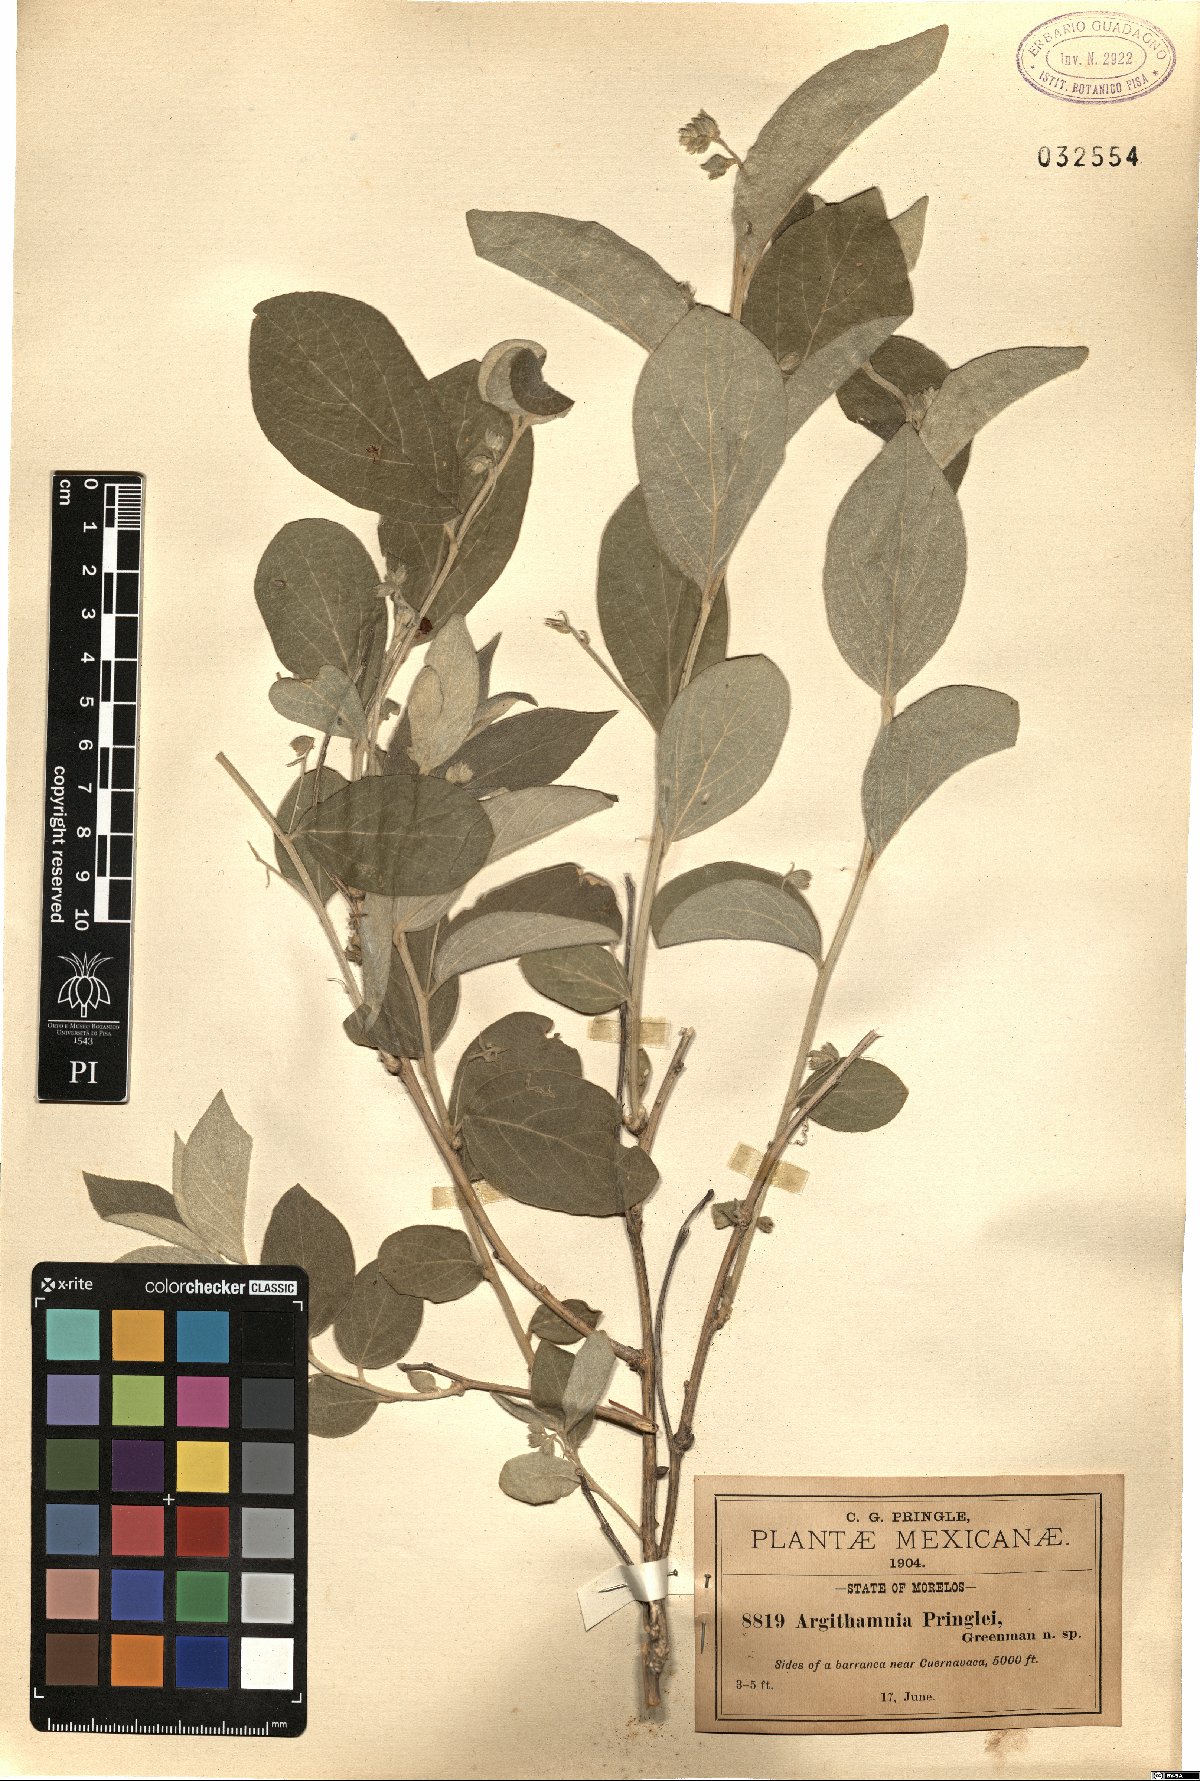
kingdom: Plantae
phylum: Tracheophyta
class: Magnoliopsida
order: Malpighiales
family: Euphorbiaceae
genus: Ditaxis
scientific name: Ditaxis pringlei
